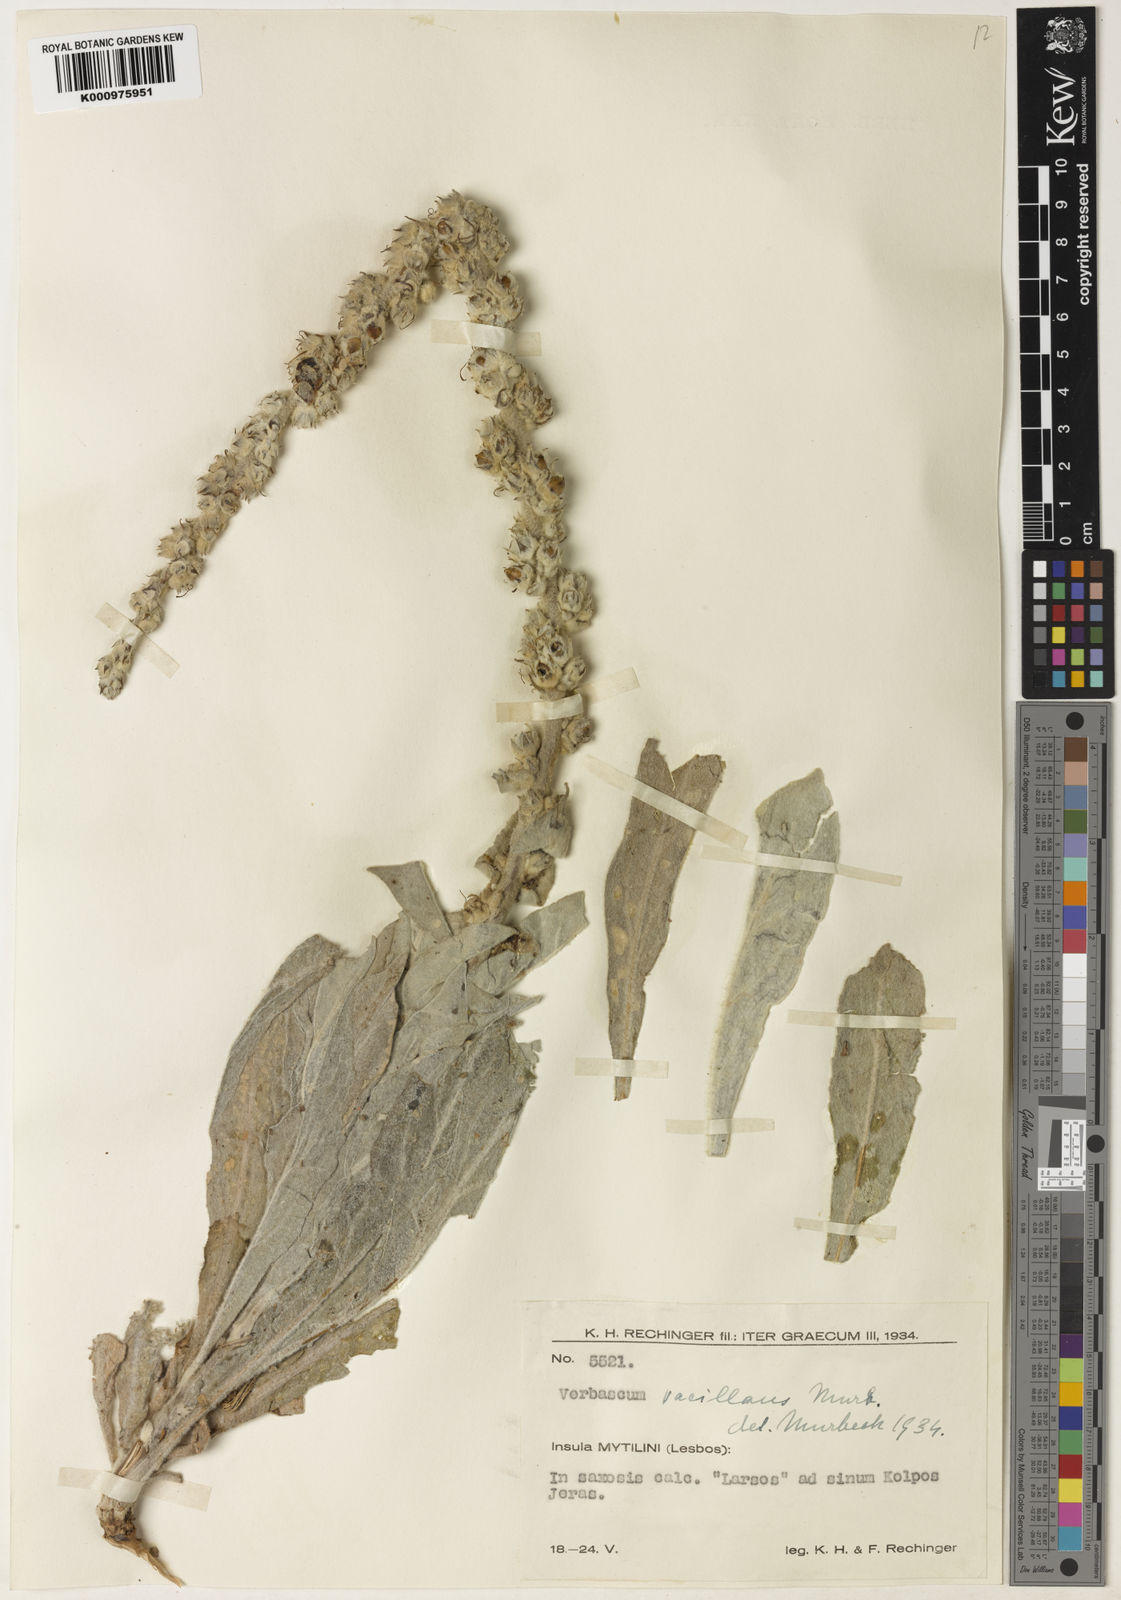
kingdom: Plantae
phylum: Tracheophyta
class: Magnoliopsida
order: Lamiales
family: Scrophulariaceae
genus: Verbascum
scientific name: Verbascum vacillans
